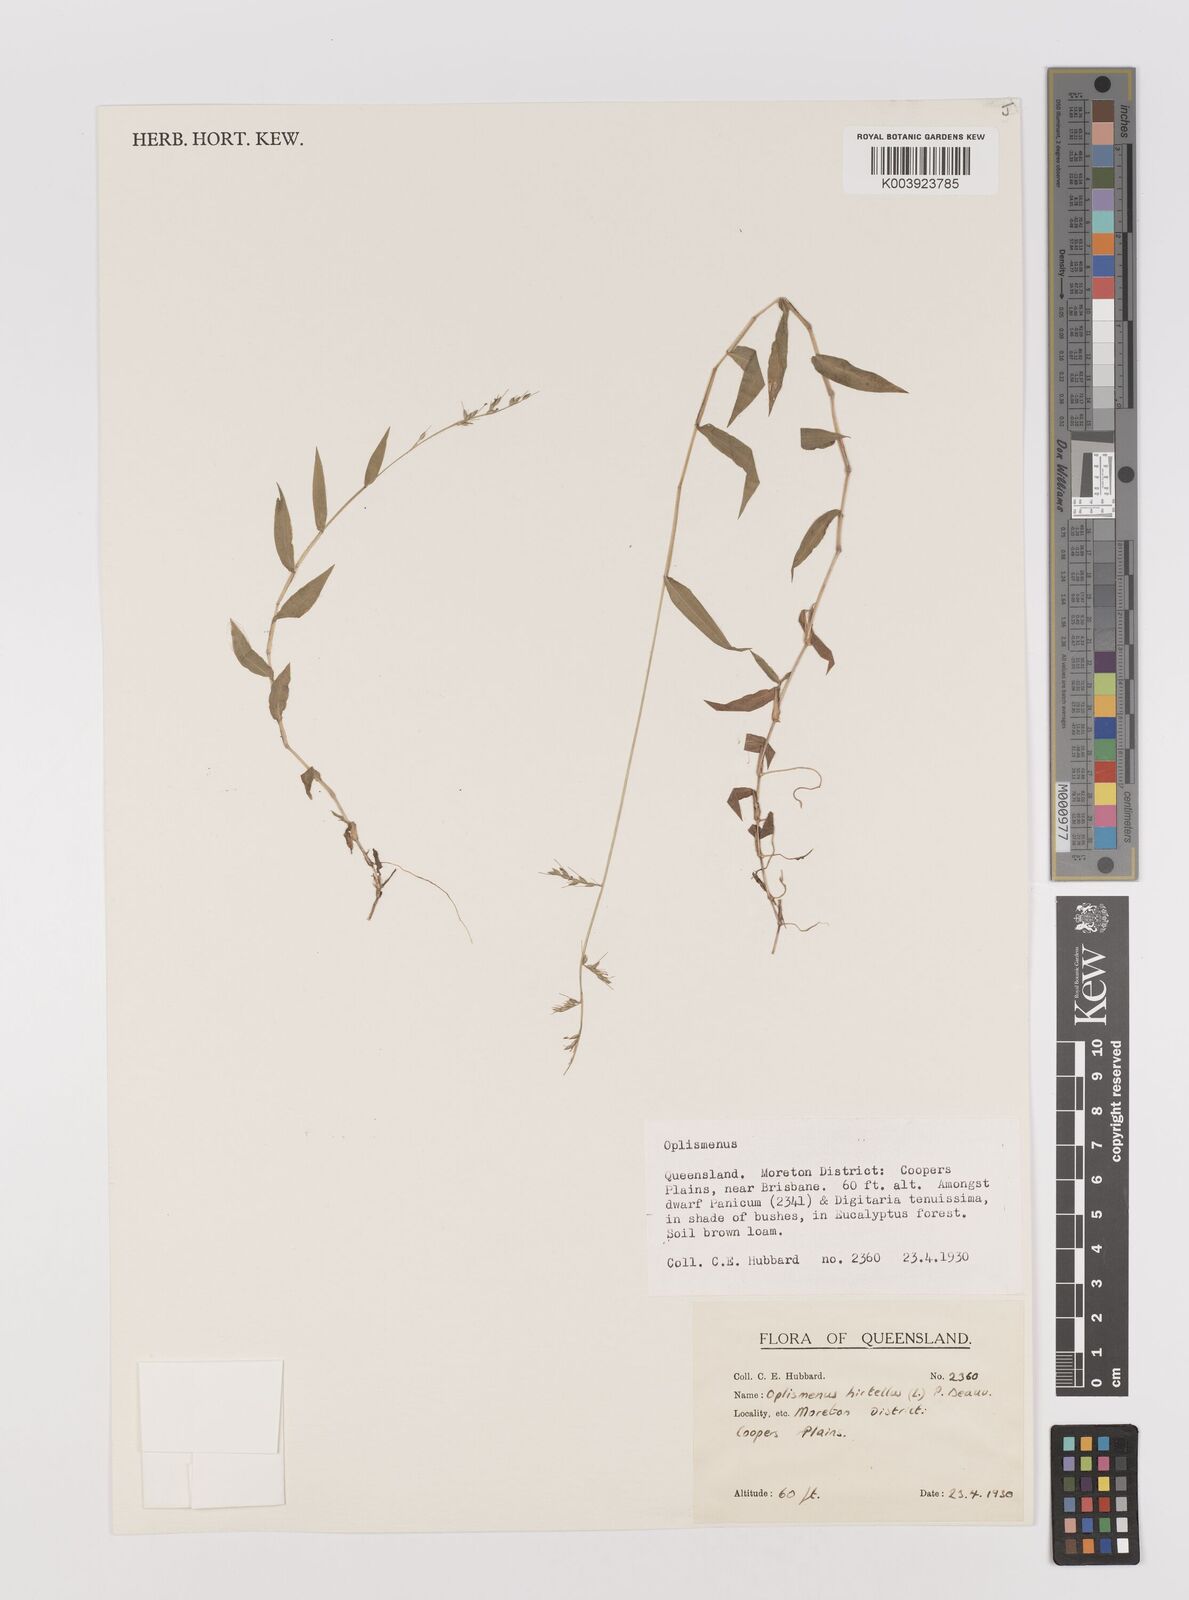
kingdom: Plantae
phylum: Tracheophyta
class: Liliopsida
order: Poales
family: Poaceae
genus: Oplismenus
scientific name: Oplismenus hirtellus
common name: Basketgrass
